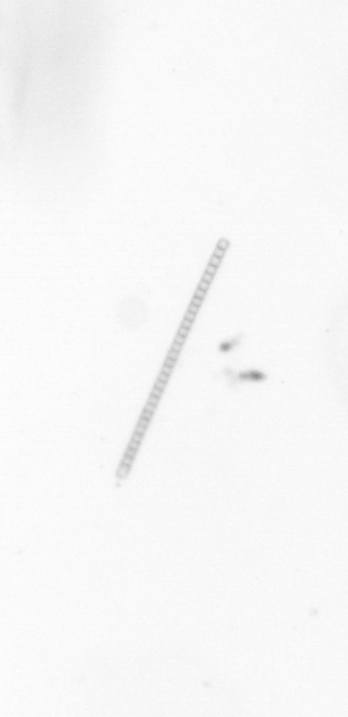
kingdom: Chromista
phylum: Ochrophyta
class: Bacillariophyceae
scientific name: Bacillariophyceae
